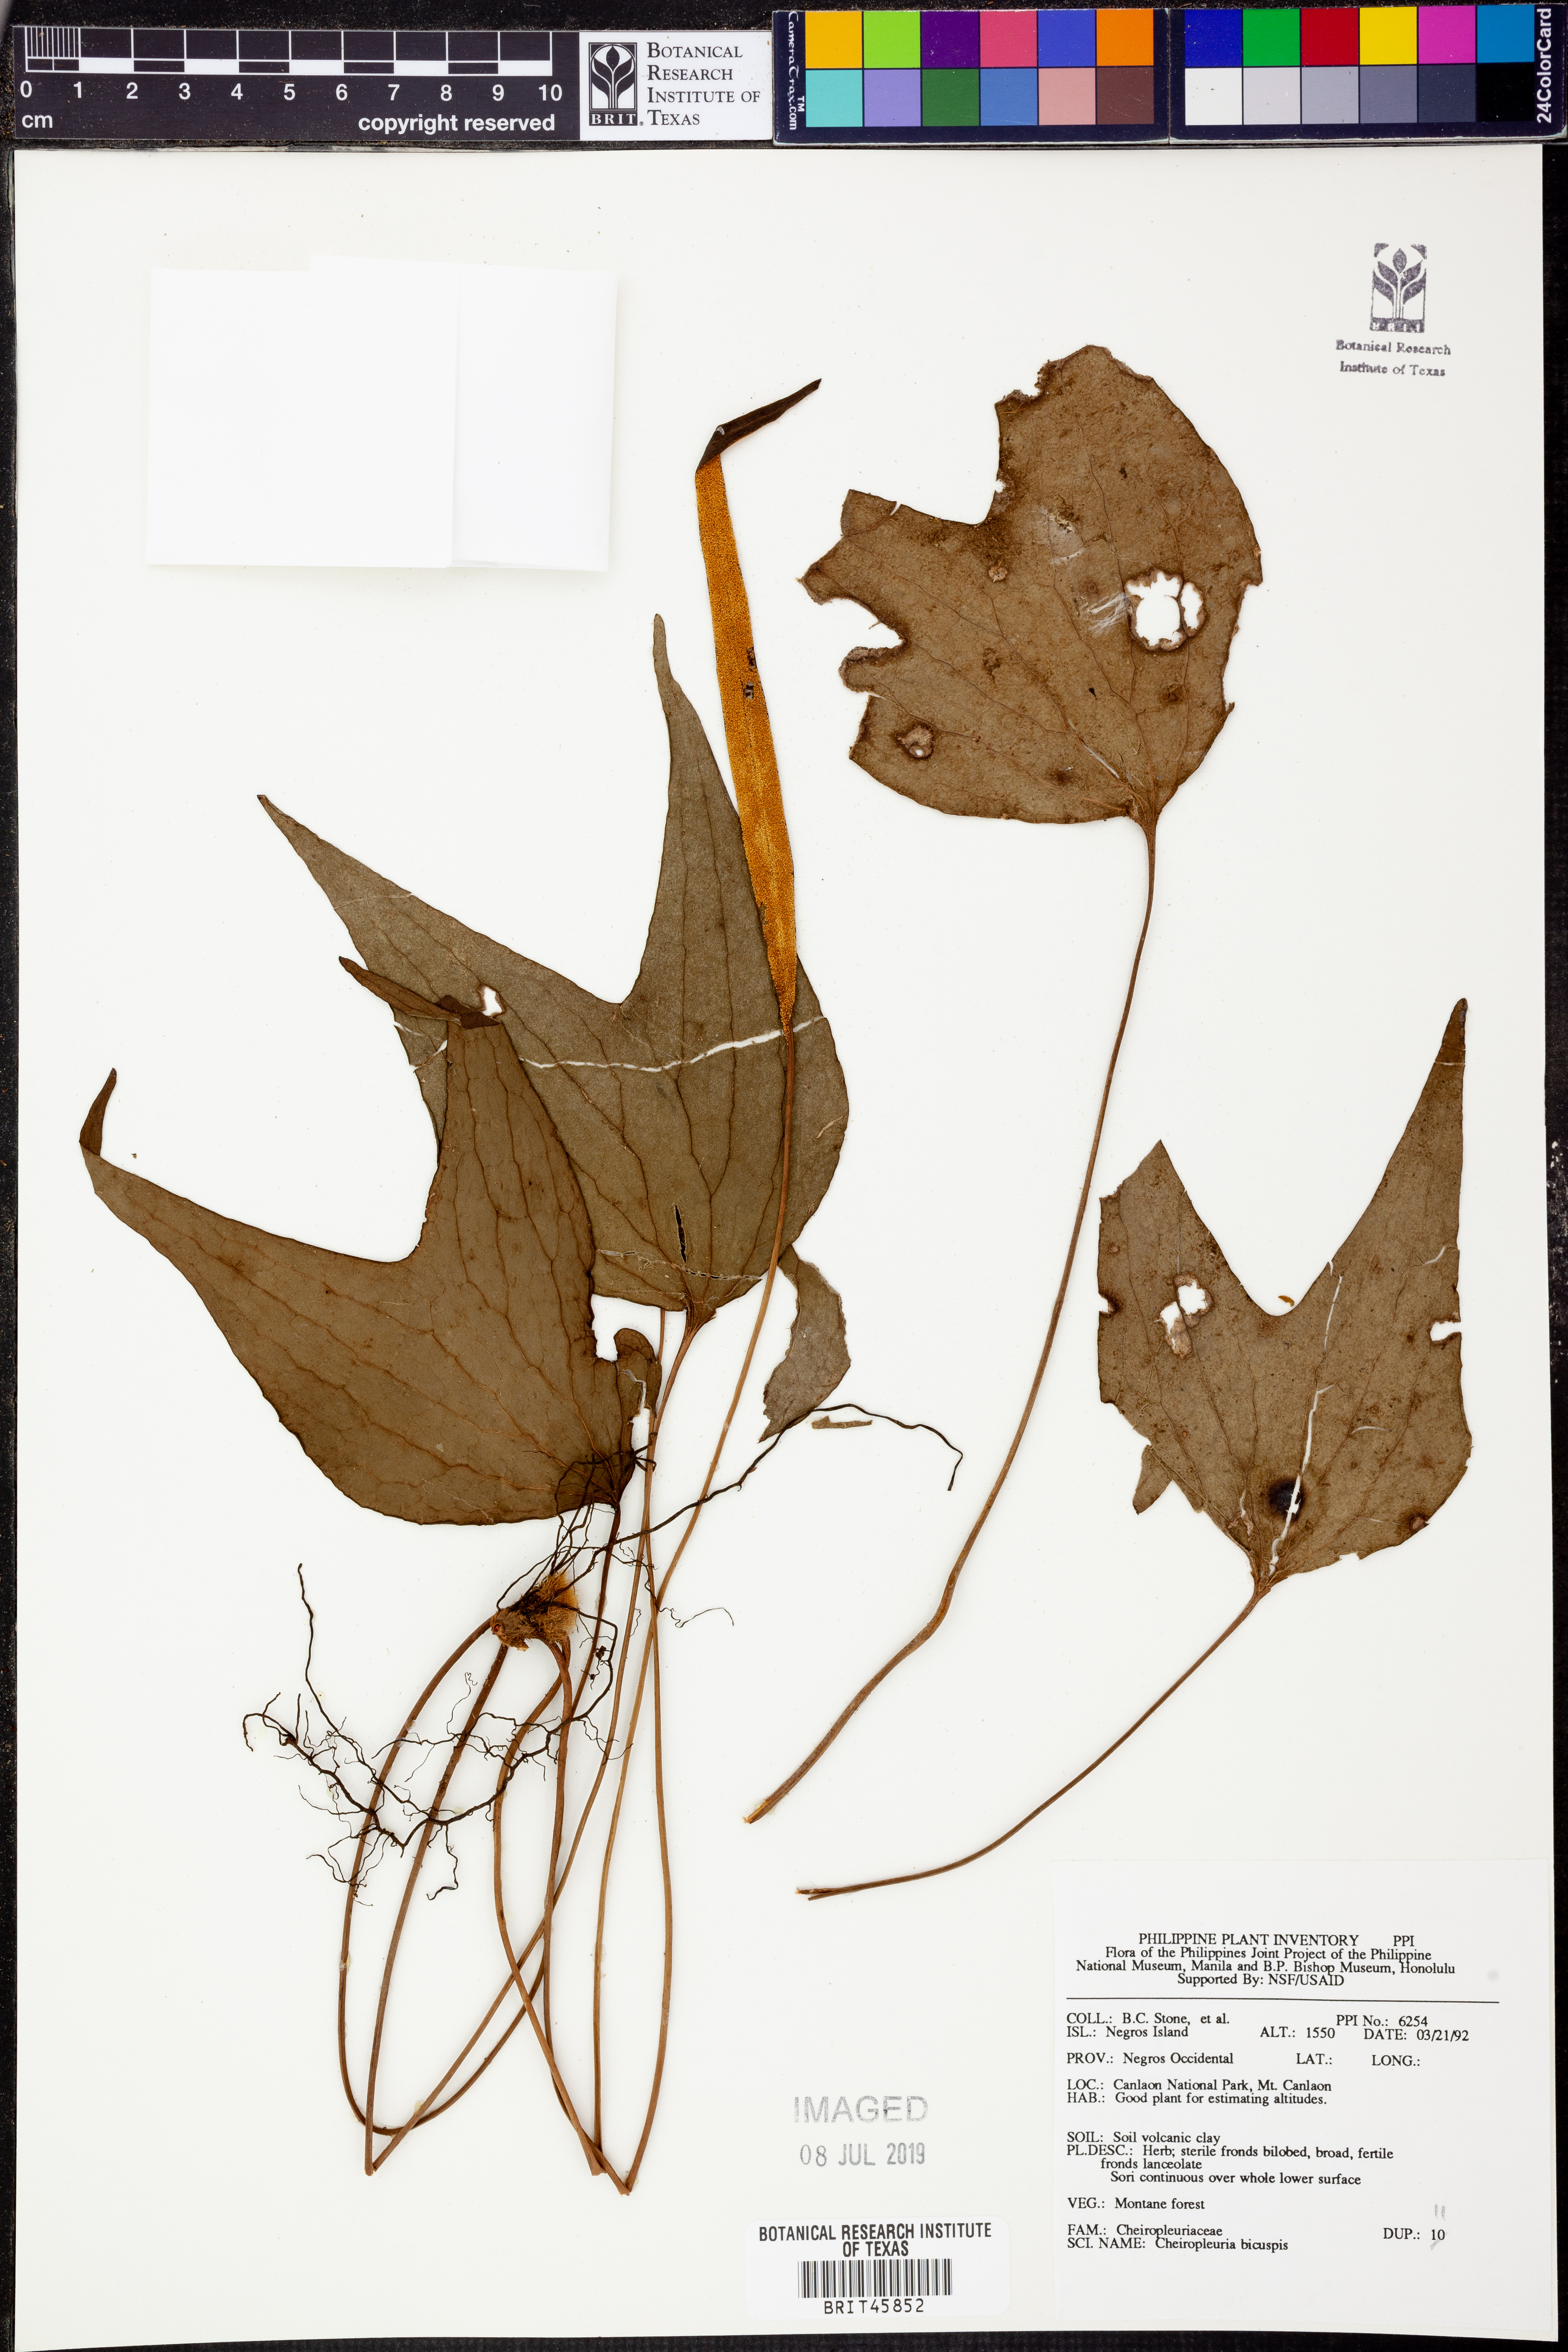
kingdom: Plantae
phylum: Tracheophyta
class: Polypodiopsida
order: Gleicheniales
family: Dipteridaceae
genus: Cheiropleuria
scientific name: Cheiropleuria bicuspis
